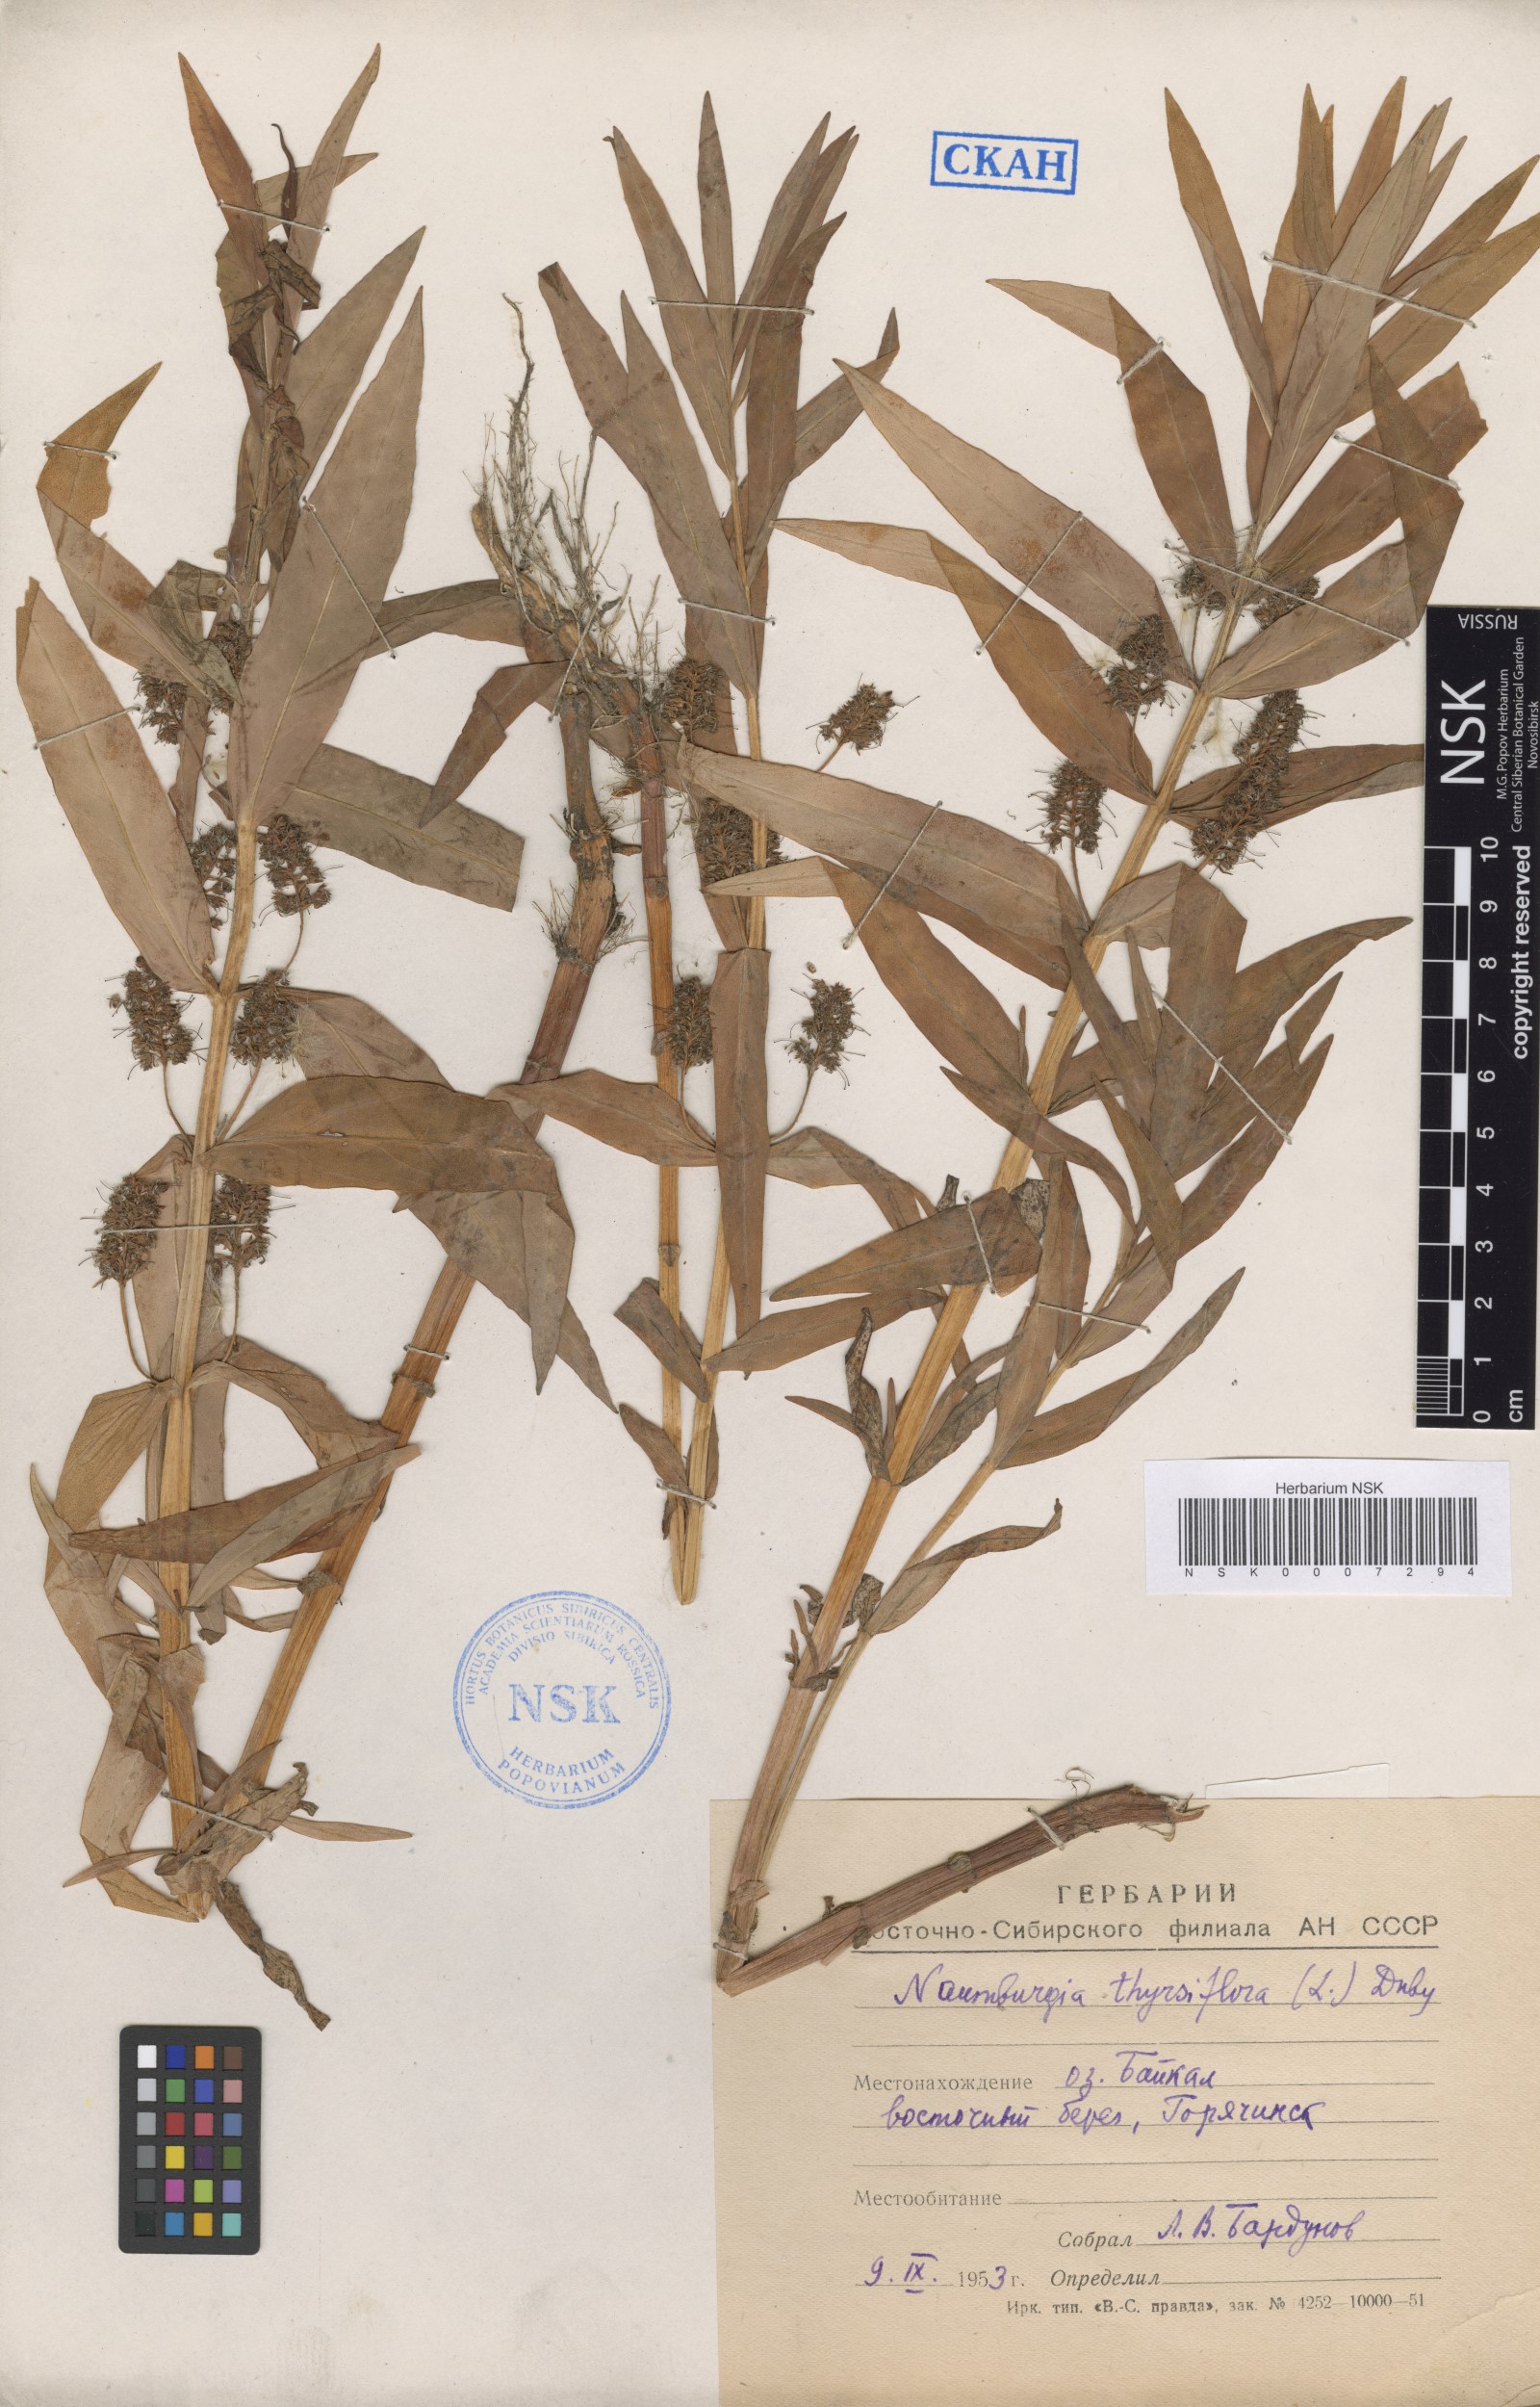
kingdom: Plantae
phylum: Tracheophyta
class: Magnoliopsida
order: Ericales
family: Primulaceae
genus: Lysimachia
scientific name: Lysimachia thyrsiflora
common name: Tufted loosestrife
